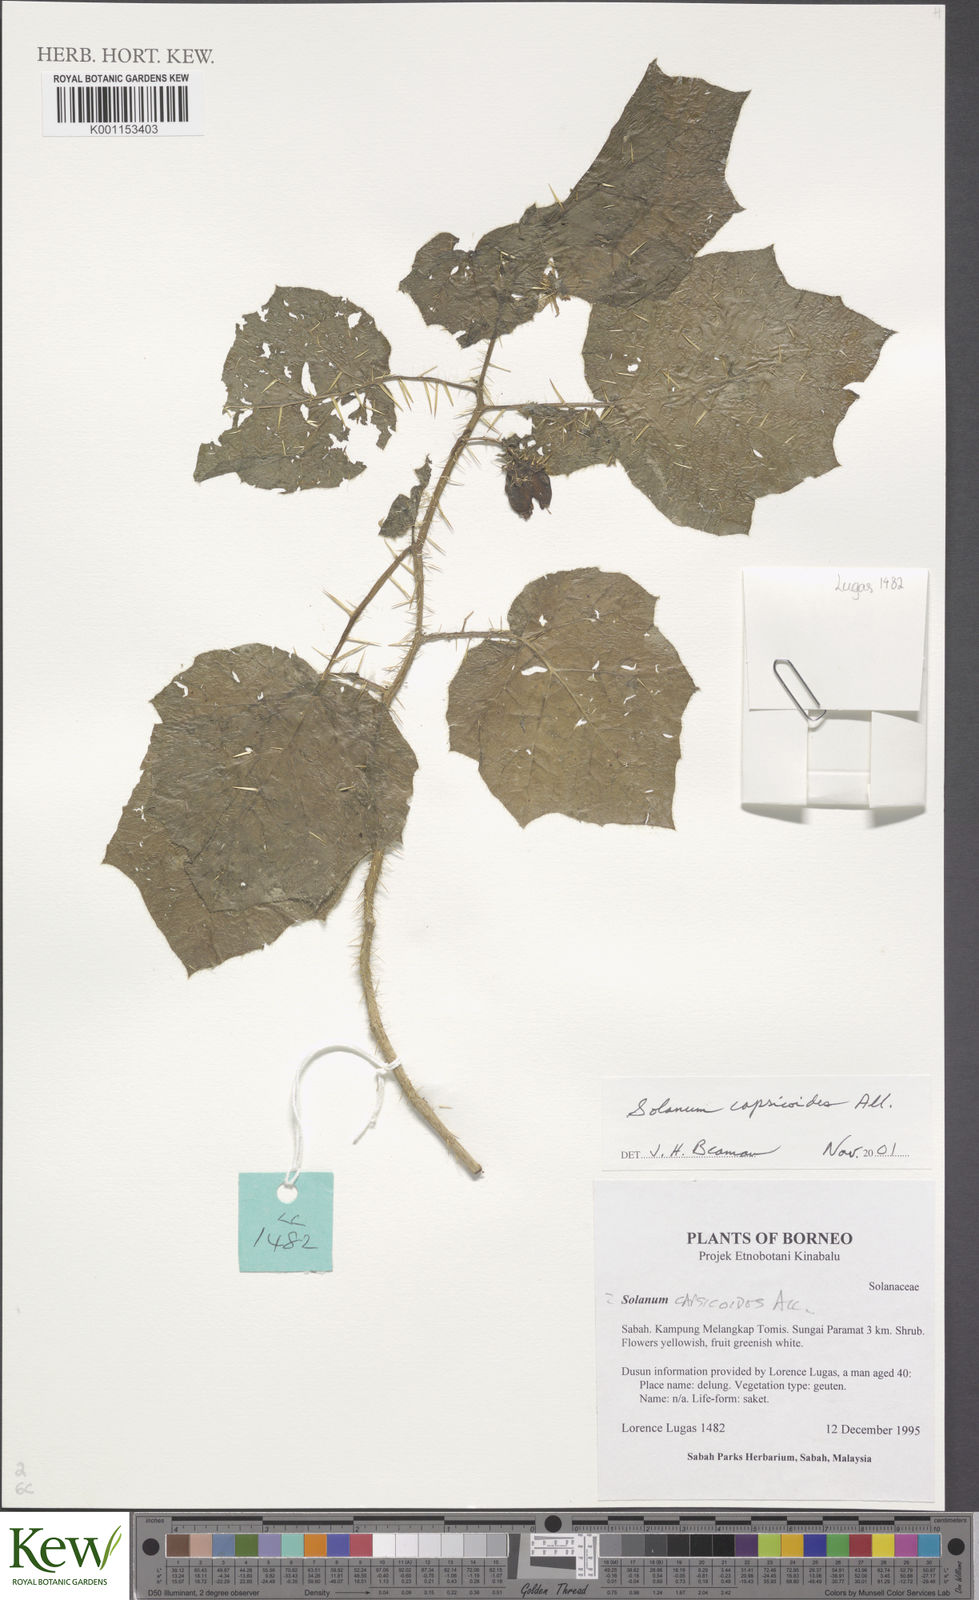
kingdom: Plantae
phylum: Tracheophyta
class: Magnoliopsida
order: Solanales
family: Solanaceae
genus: Solanum
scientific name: Solanum capsicoides
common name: Cockroach berry
